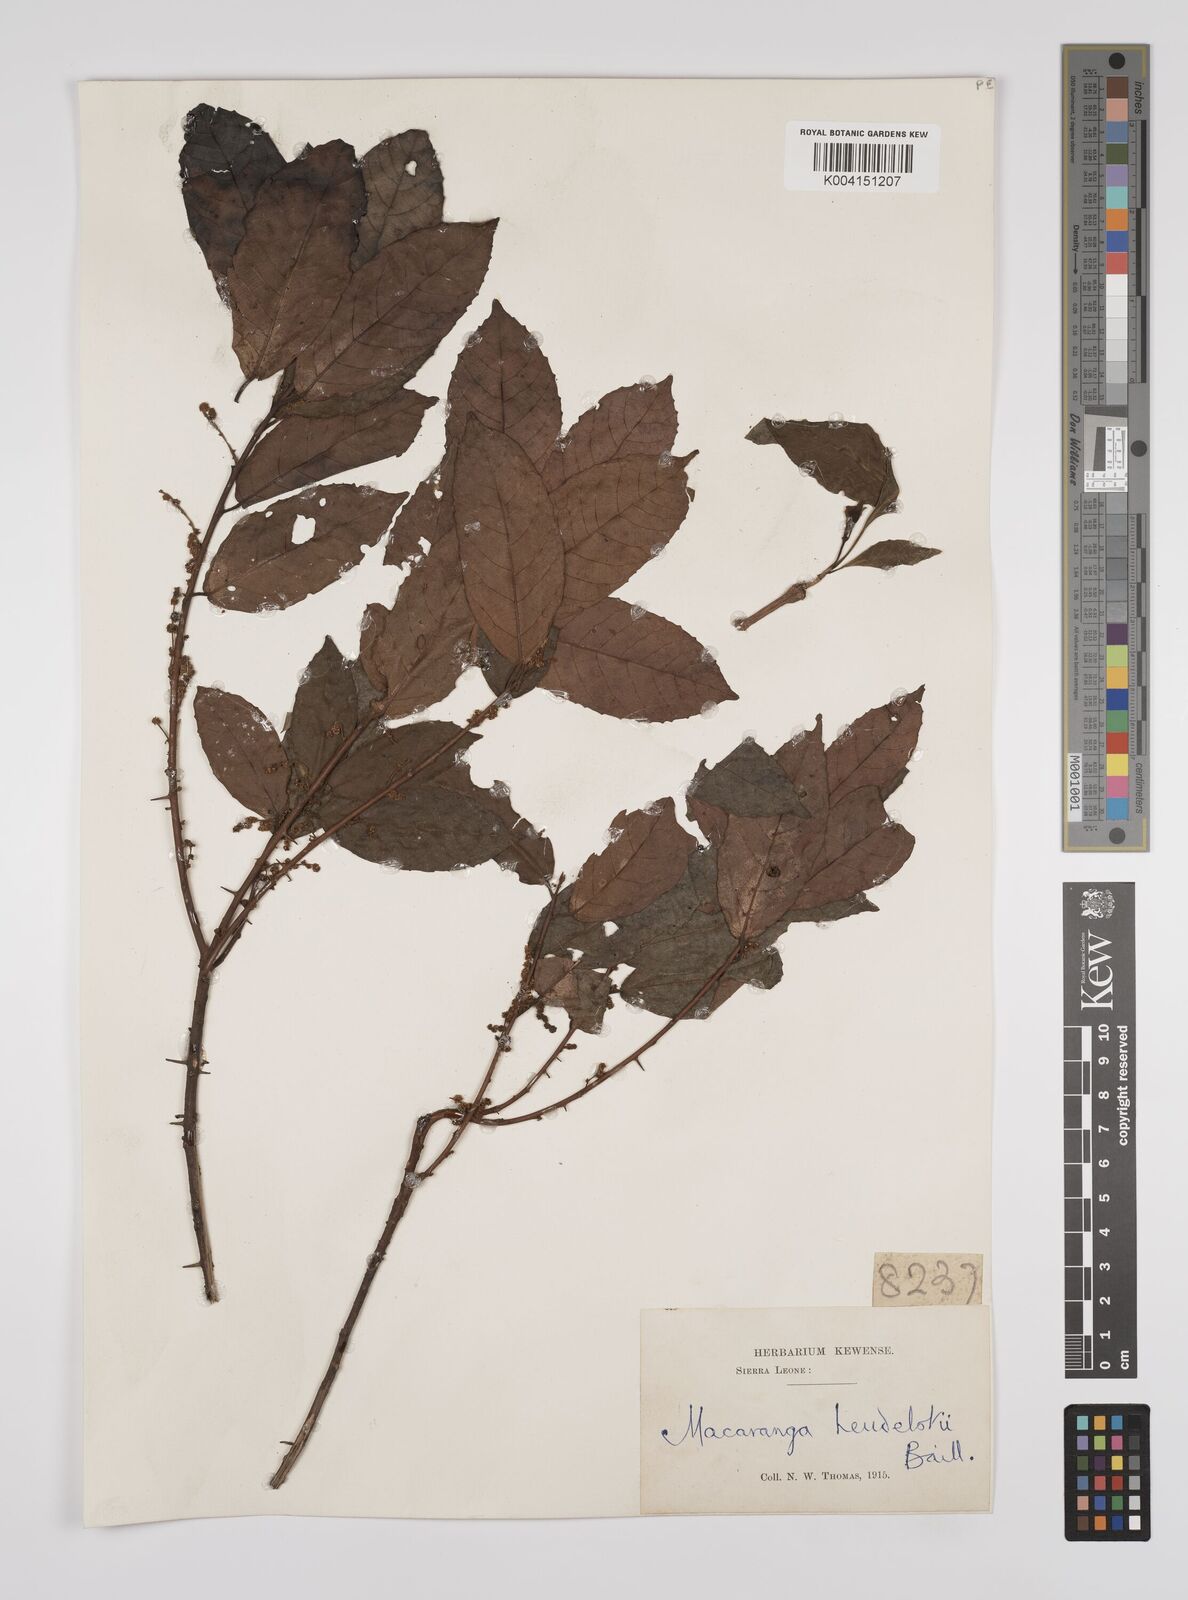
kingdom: Plantae
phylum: Tracheophyta
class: Magnoliopsida
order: Malpighiales
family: Euphorbiaceae
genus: Macaranga
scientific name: Macaranga heudelotii
